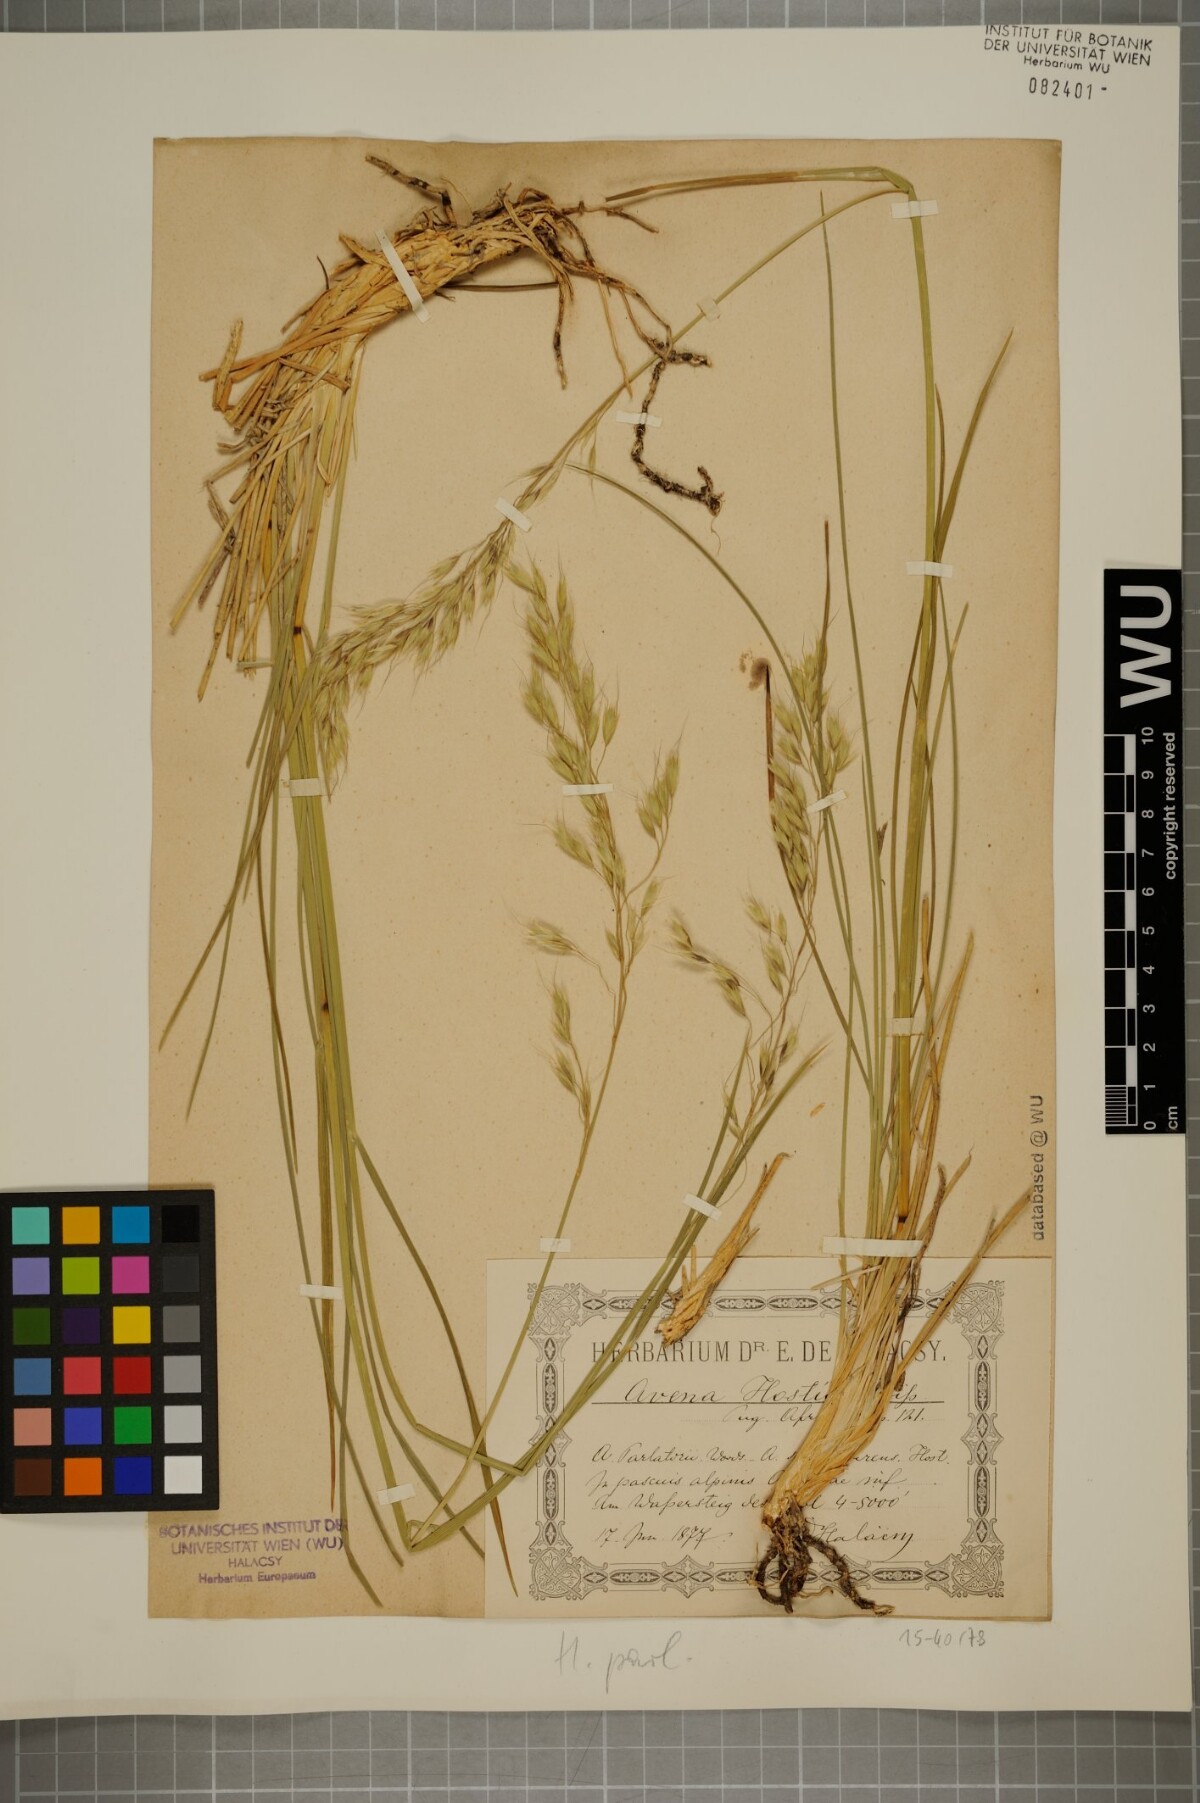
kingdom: Plantae
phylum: Tracheophyta
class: Liliopsida
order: Poales
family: Poaceae
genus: Helictotrichon
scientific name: Helictotrichon parlatorei
